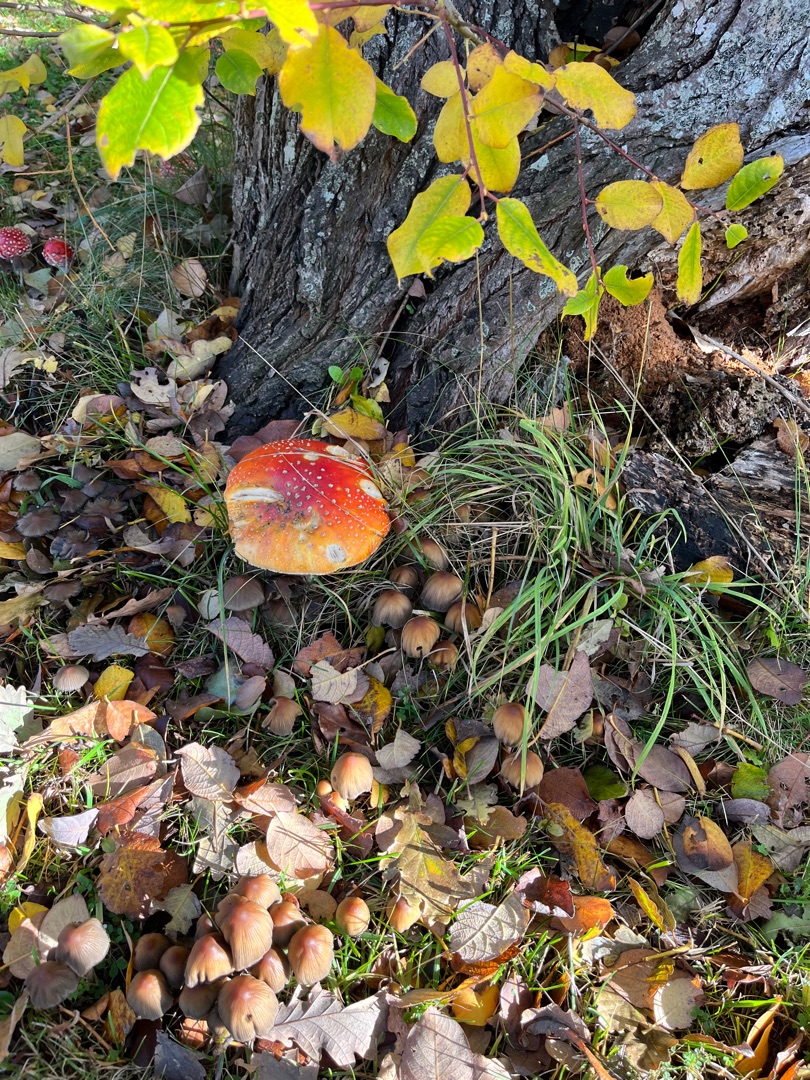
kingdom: Fungi
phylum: Basidiomycota
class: Agaricomycetes
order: Agaricales
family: Amanitaceae
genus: Amanita
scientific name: Amanita muscaria
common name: Rød fluesvamp
